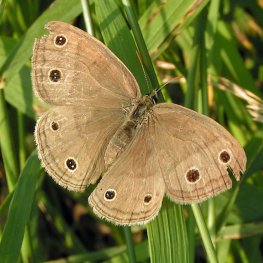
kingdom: Animalia
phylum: Arthropoda
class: Insecta
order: Lepidoptera
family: Nymphalidae
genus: Euptychia
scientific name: Euptychia cymela
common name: Little Wood Satyr
